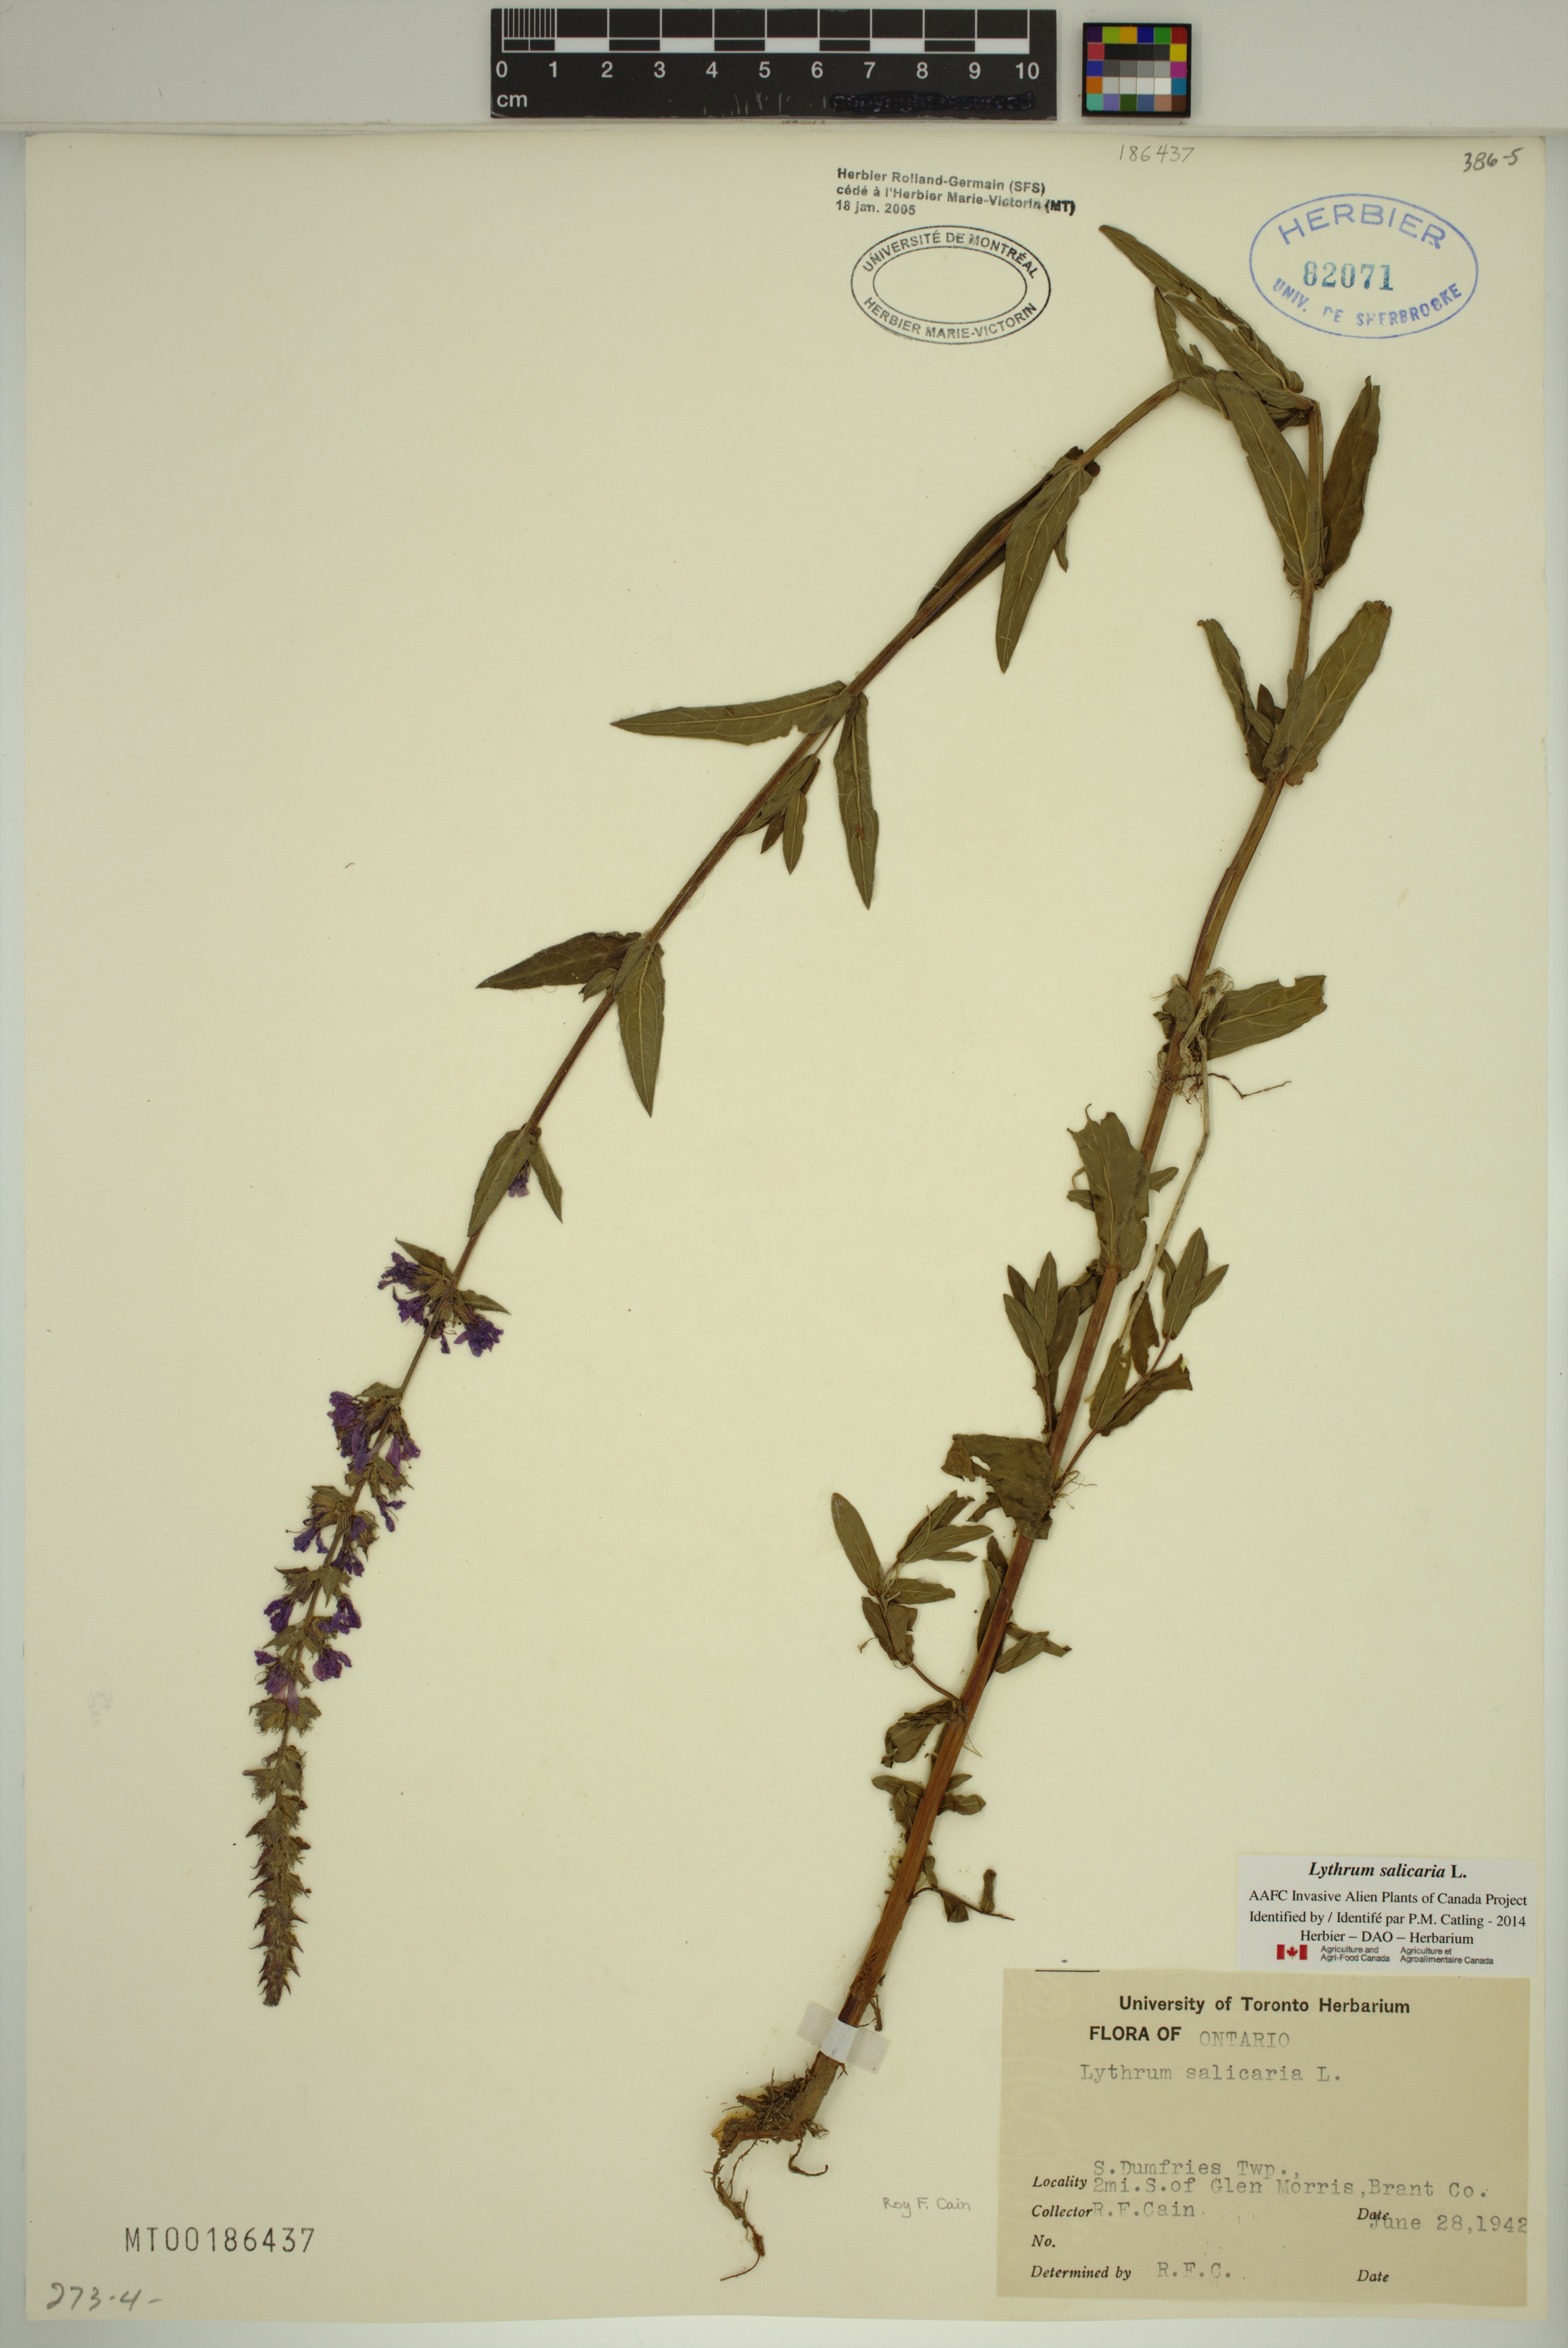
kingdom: Plantae
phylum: Tracheophyta
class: Magnoliopsida
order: Myrtales
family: Lythraceae
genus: Lythrum
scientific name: Lythrum salicaria
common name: Purple loosestrife
